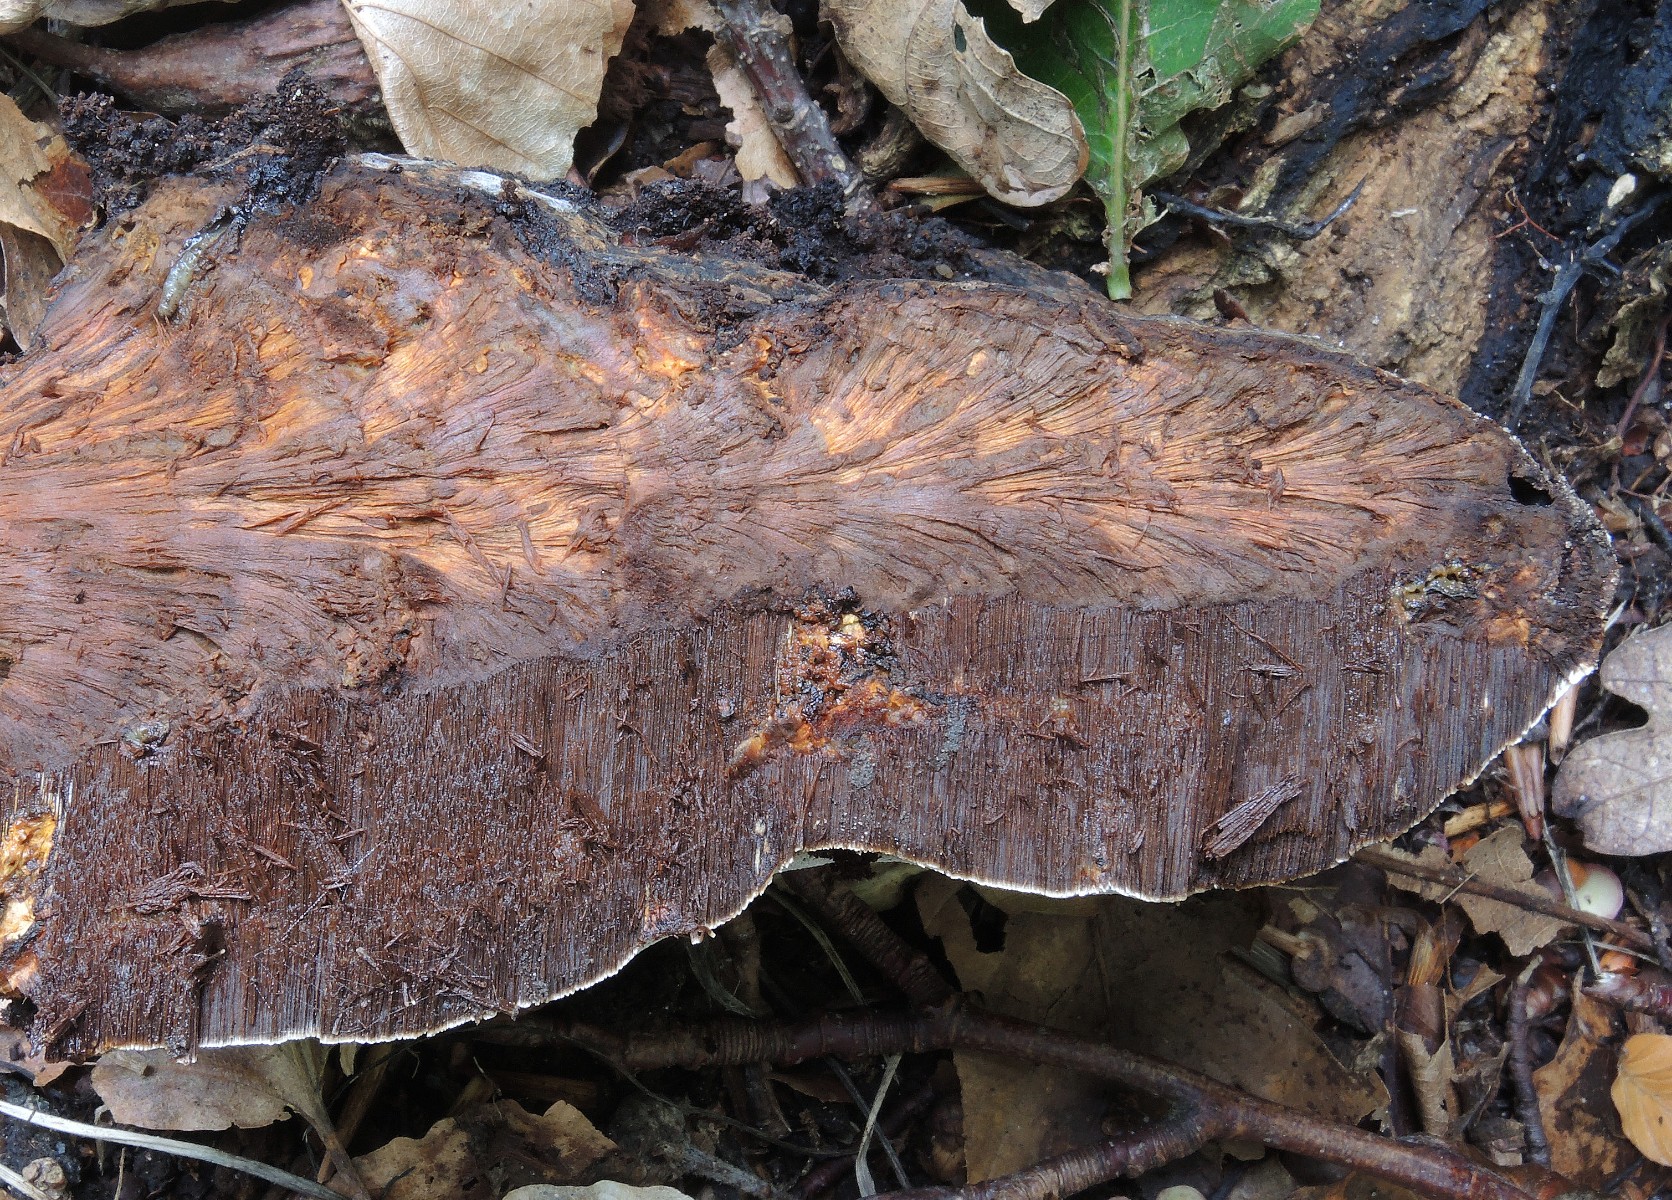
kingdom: Fungi
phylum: Basidiomycota
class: Agaricomycetes
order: Hymenochaetales
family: Hymenochaetaceae
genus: Pseudoinonotus
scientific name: Pseudoinonotus dryadeus
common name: ege-spejlporesvamp
